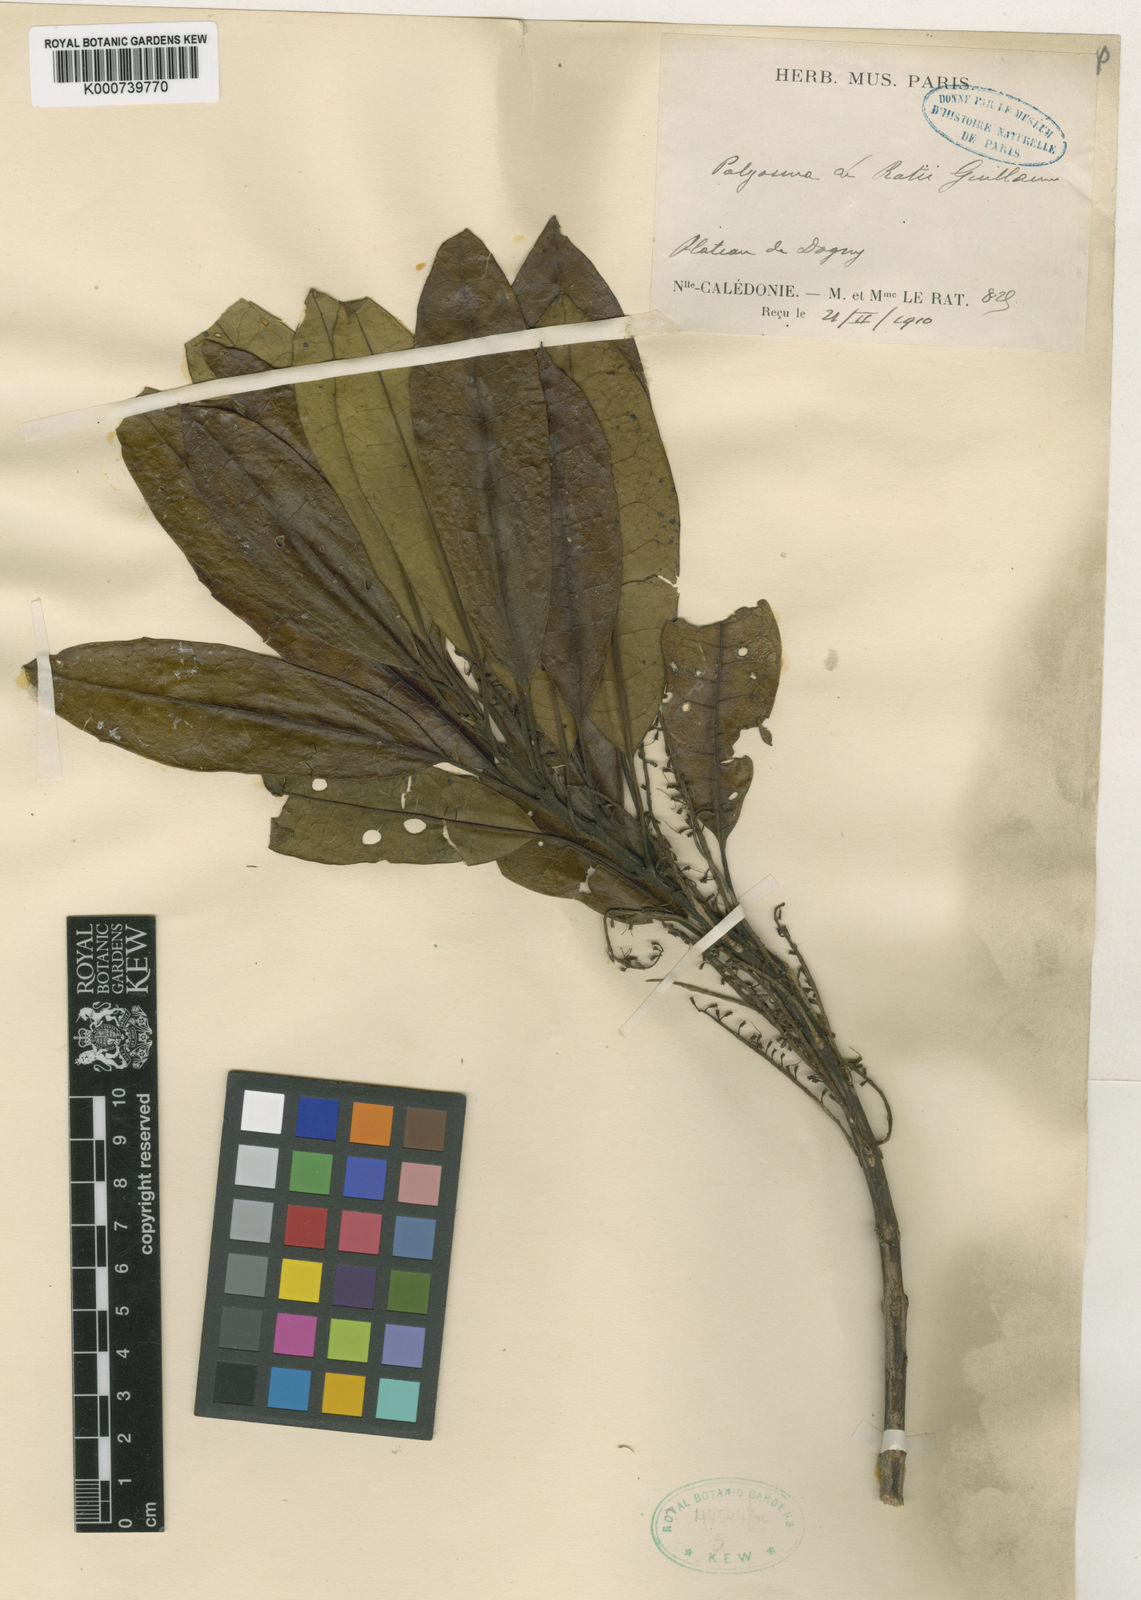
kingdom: Plantae
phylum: Tracheophyta
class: Magnoliopsida
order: Escalloniales
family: Escalloniaceae
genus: Polyosma
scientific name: Polyosma
